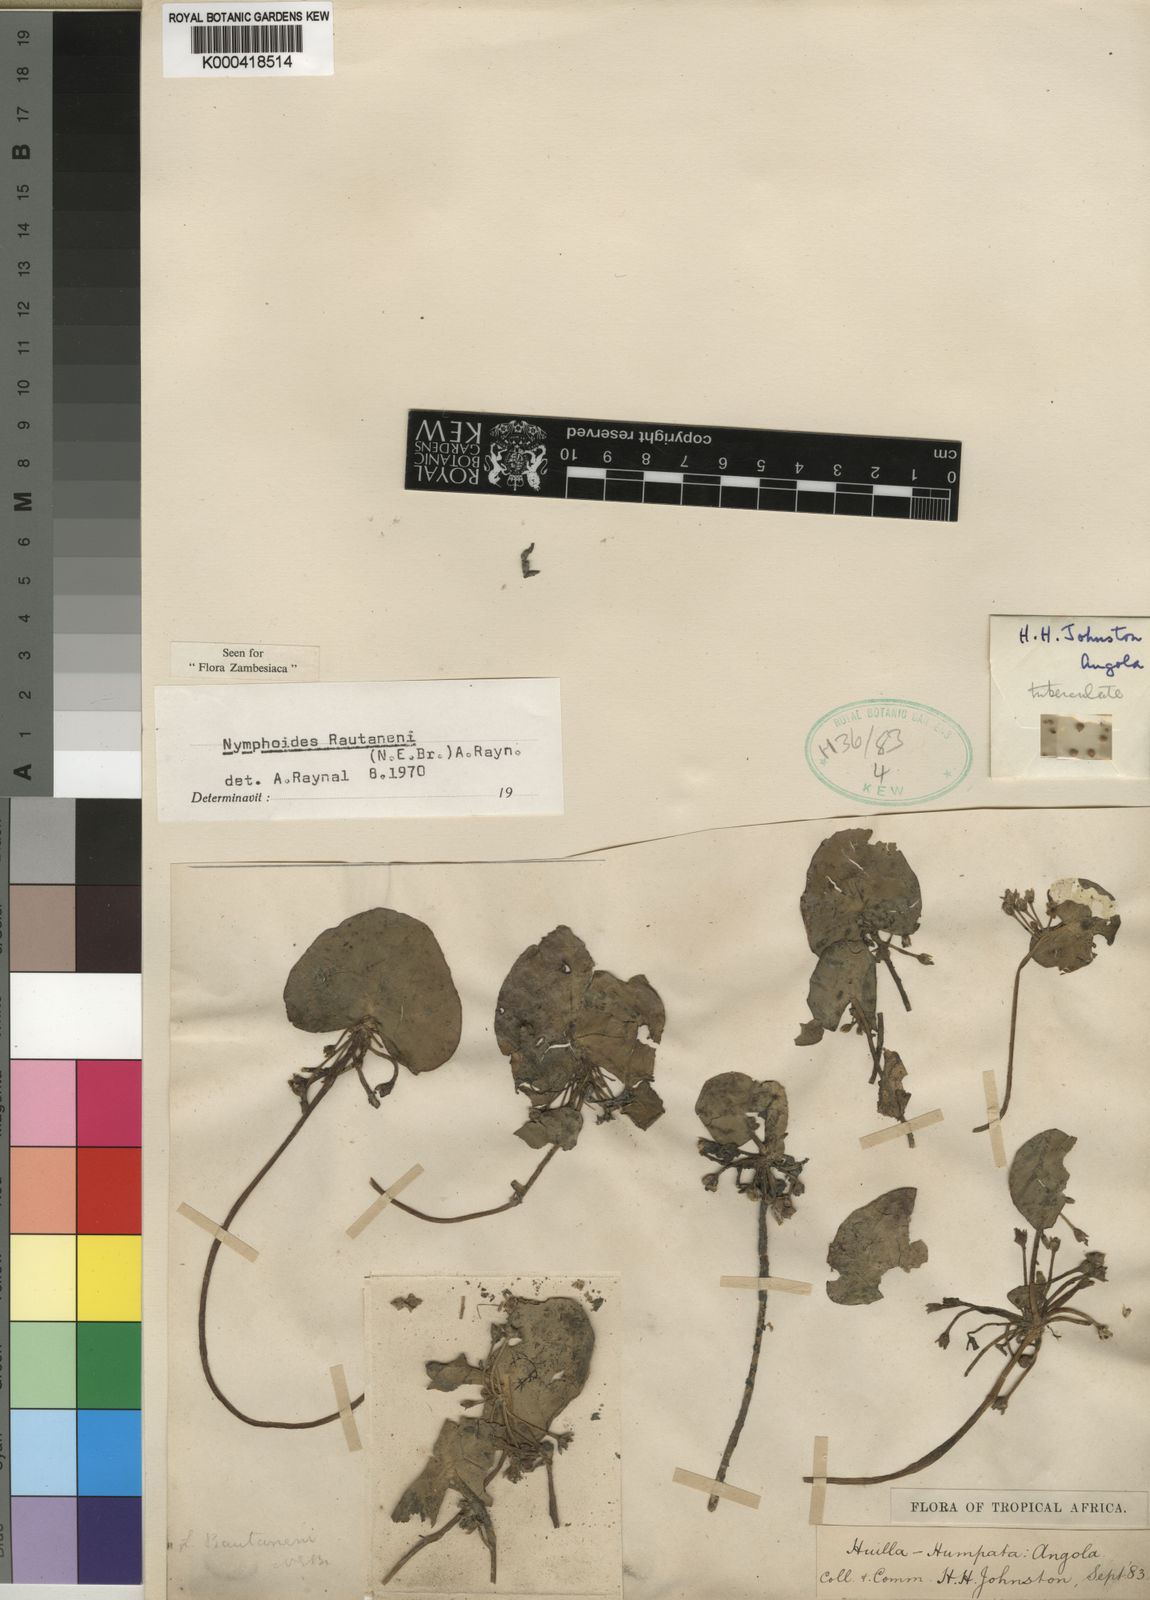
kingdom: Plantae
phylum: Tracheophyta
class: Magnoliopsida
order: Asterales
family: Menyanthaceae
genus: Nymphoides
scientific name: Nymphoides rautanenii
